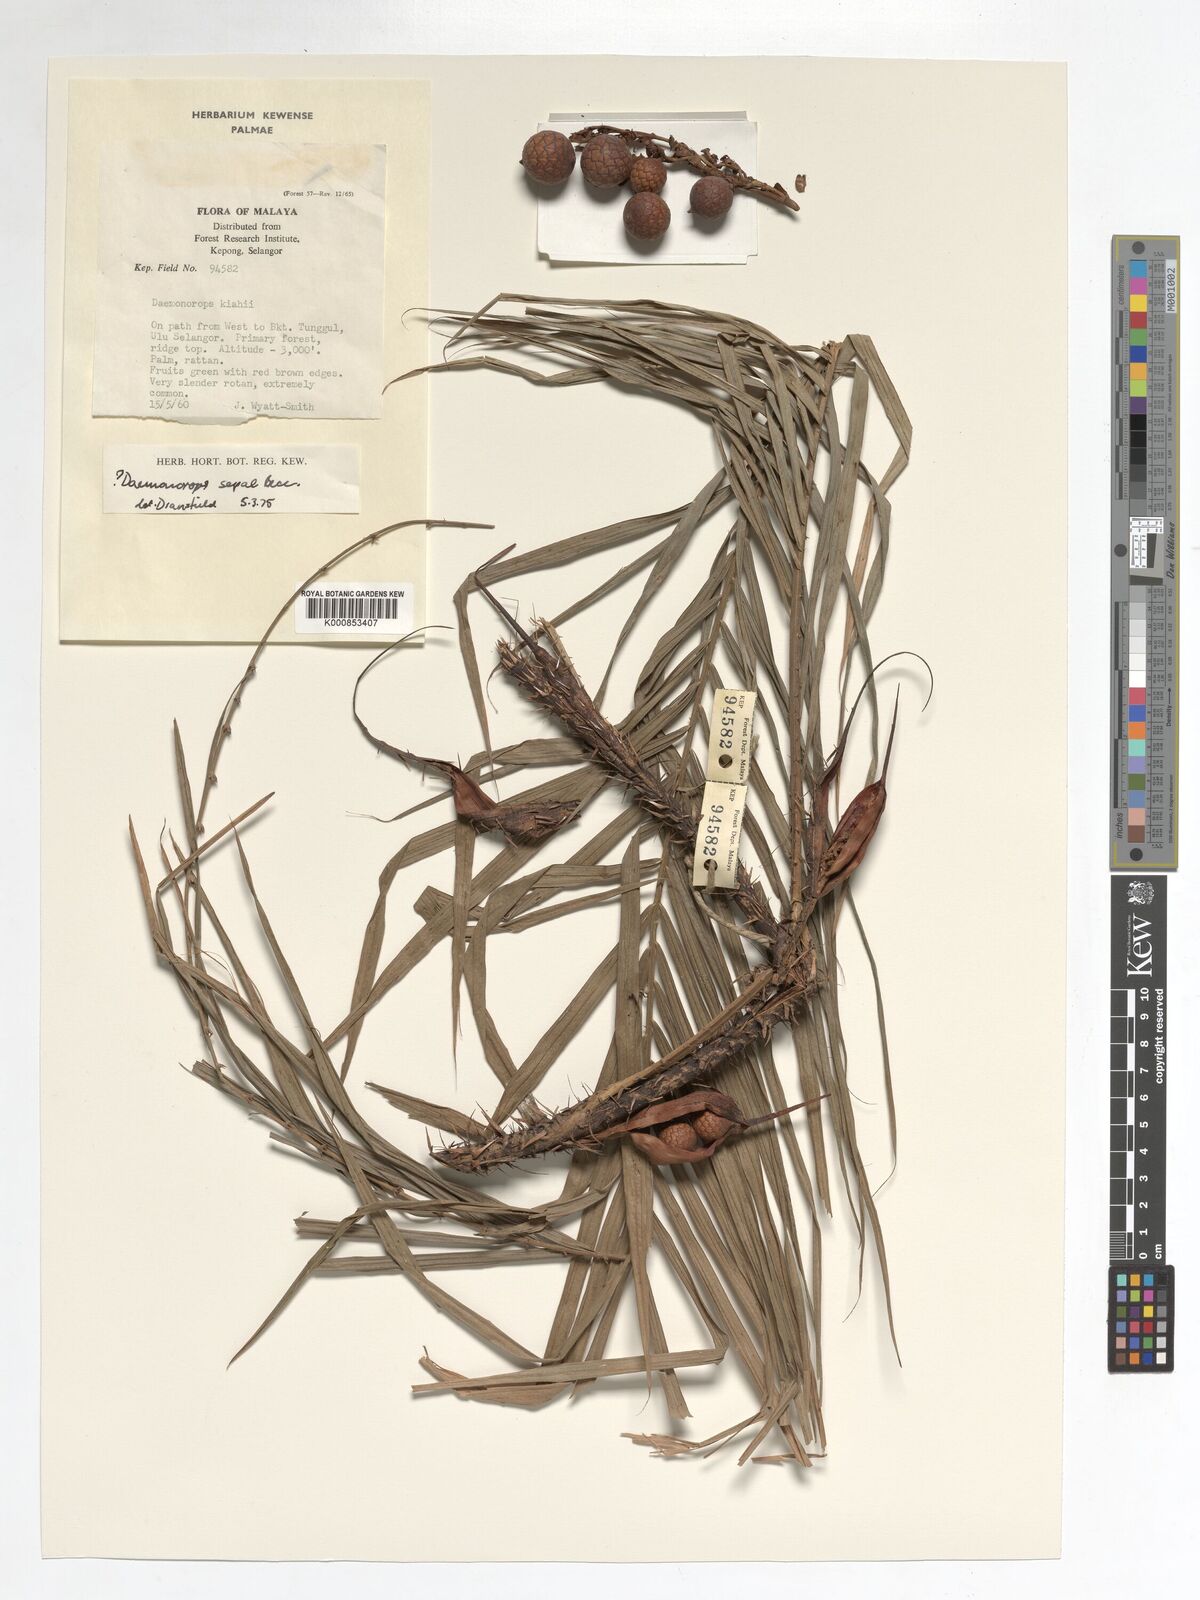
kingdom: Plantae
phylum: Tracheophyta
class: Liliopsida
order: Arecales
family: Arecaceae
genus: Calamus
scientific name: Calamus melanochaetes
